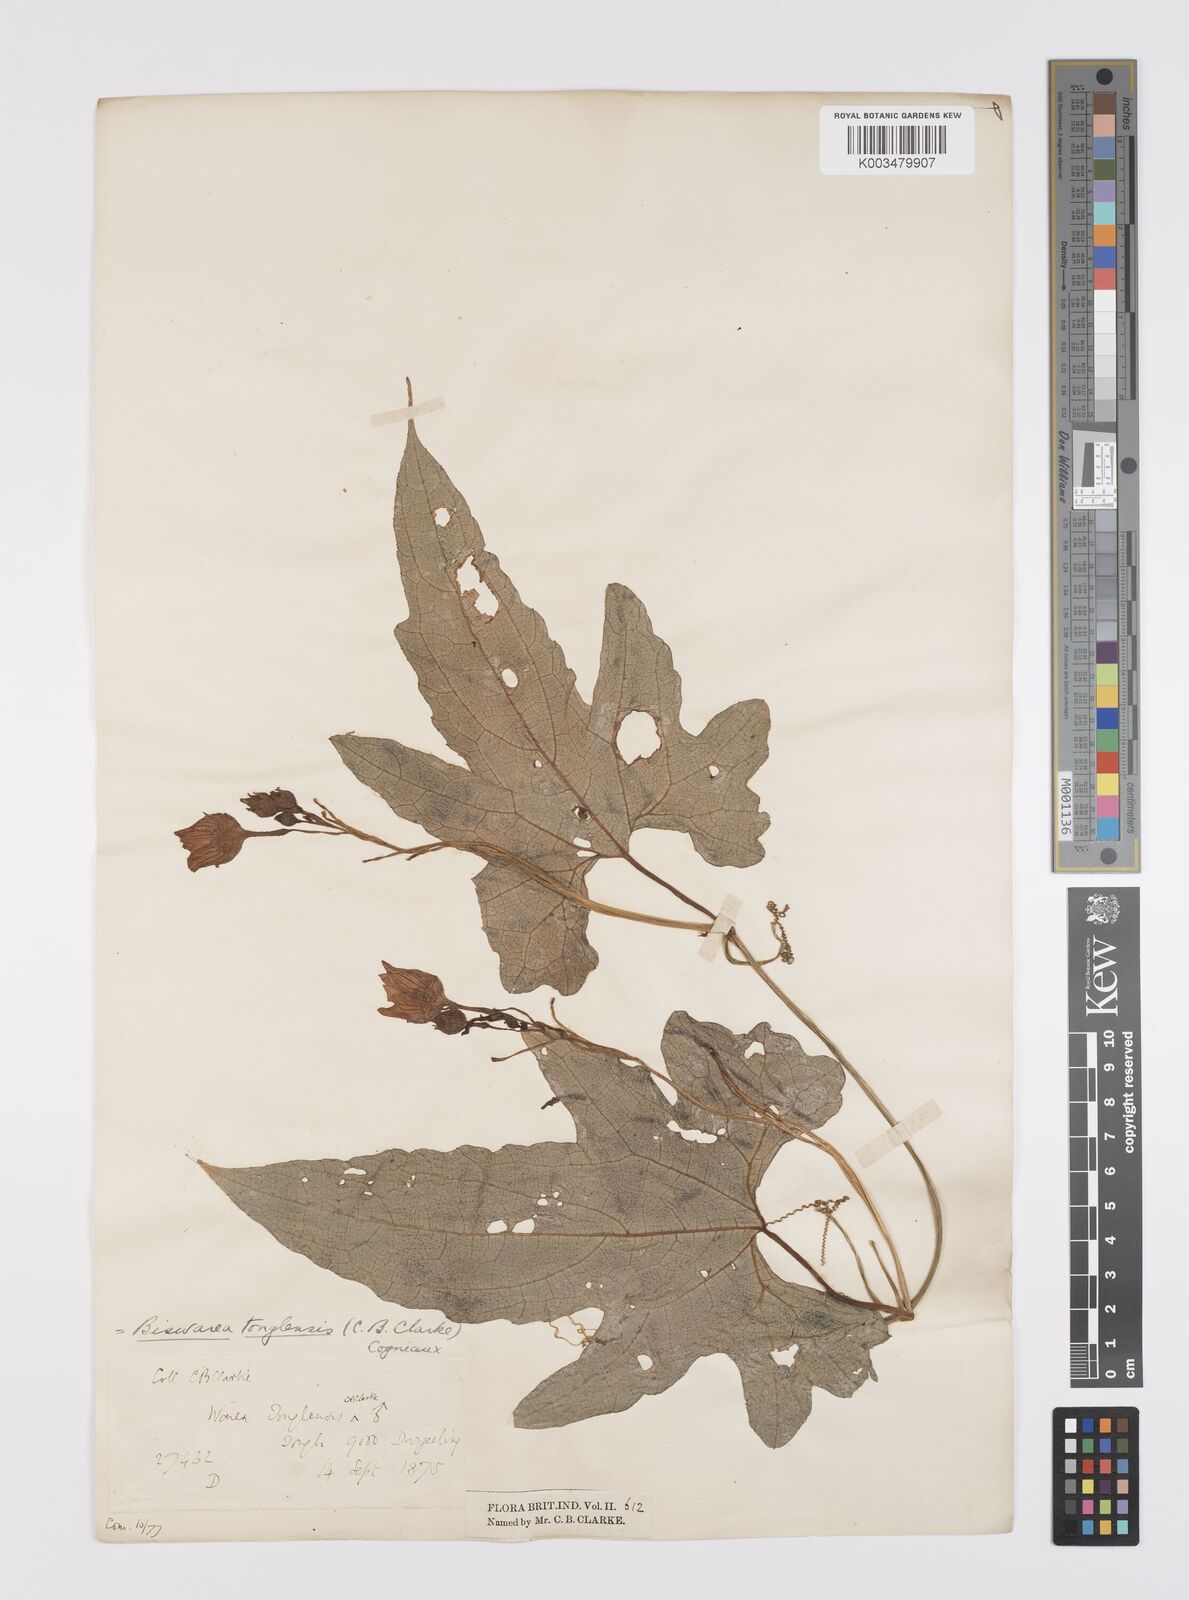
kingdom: Plantae
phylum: Tracheophyta
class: Magnoliopsida
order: Cucurbitales
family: Cucurbitaceae
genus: Benincasa
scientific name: Benincasa
